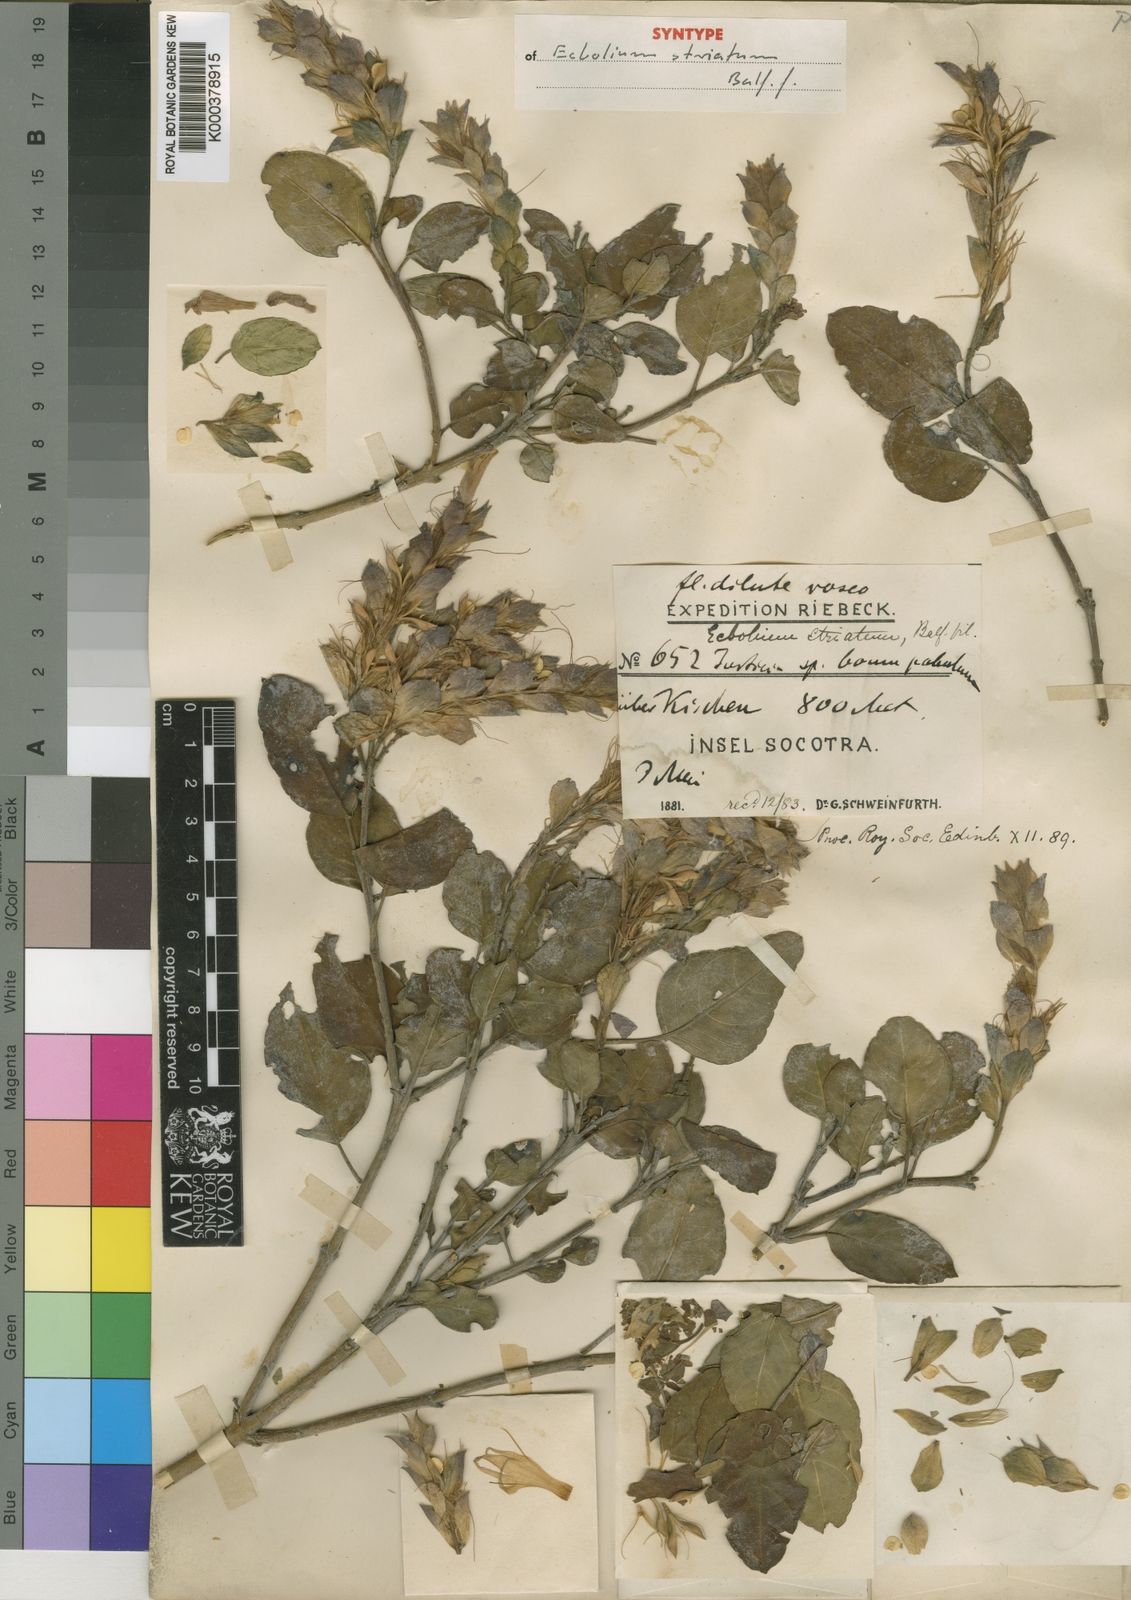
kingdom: Plantae
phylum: Tracheophyta
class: Magnoliopsida
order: Lamiales
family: Acanthaceae
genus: Chorisochora
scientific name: Chorisochora striata
